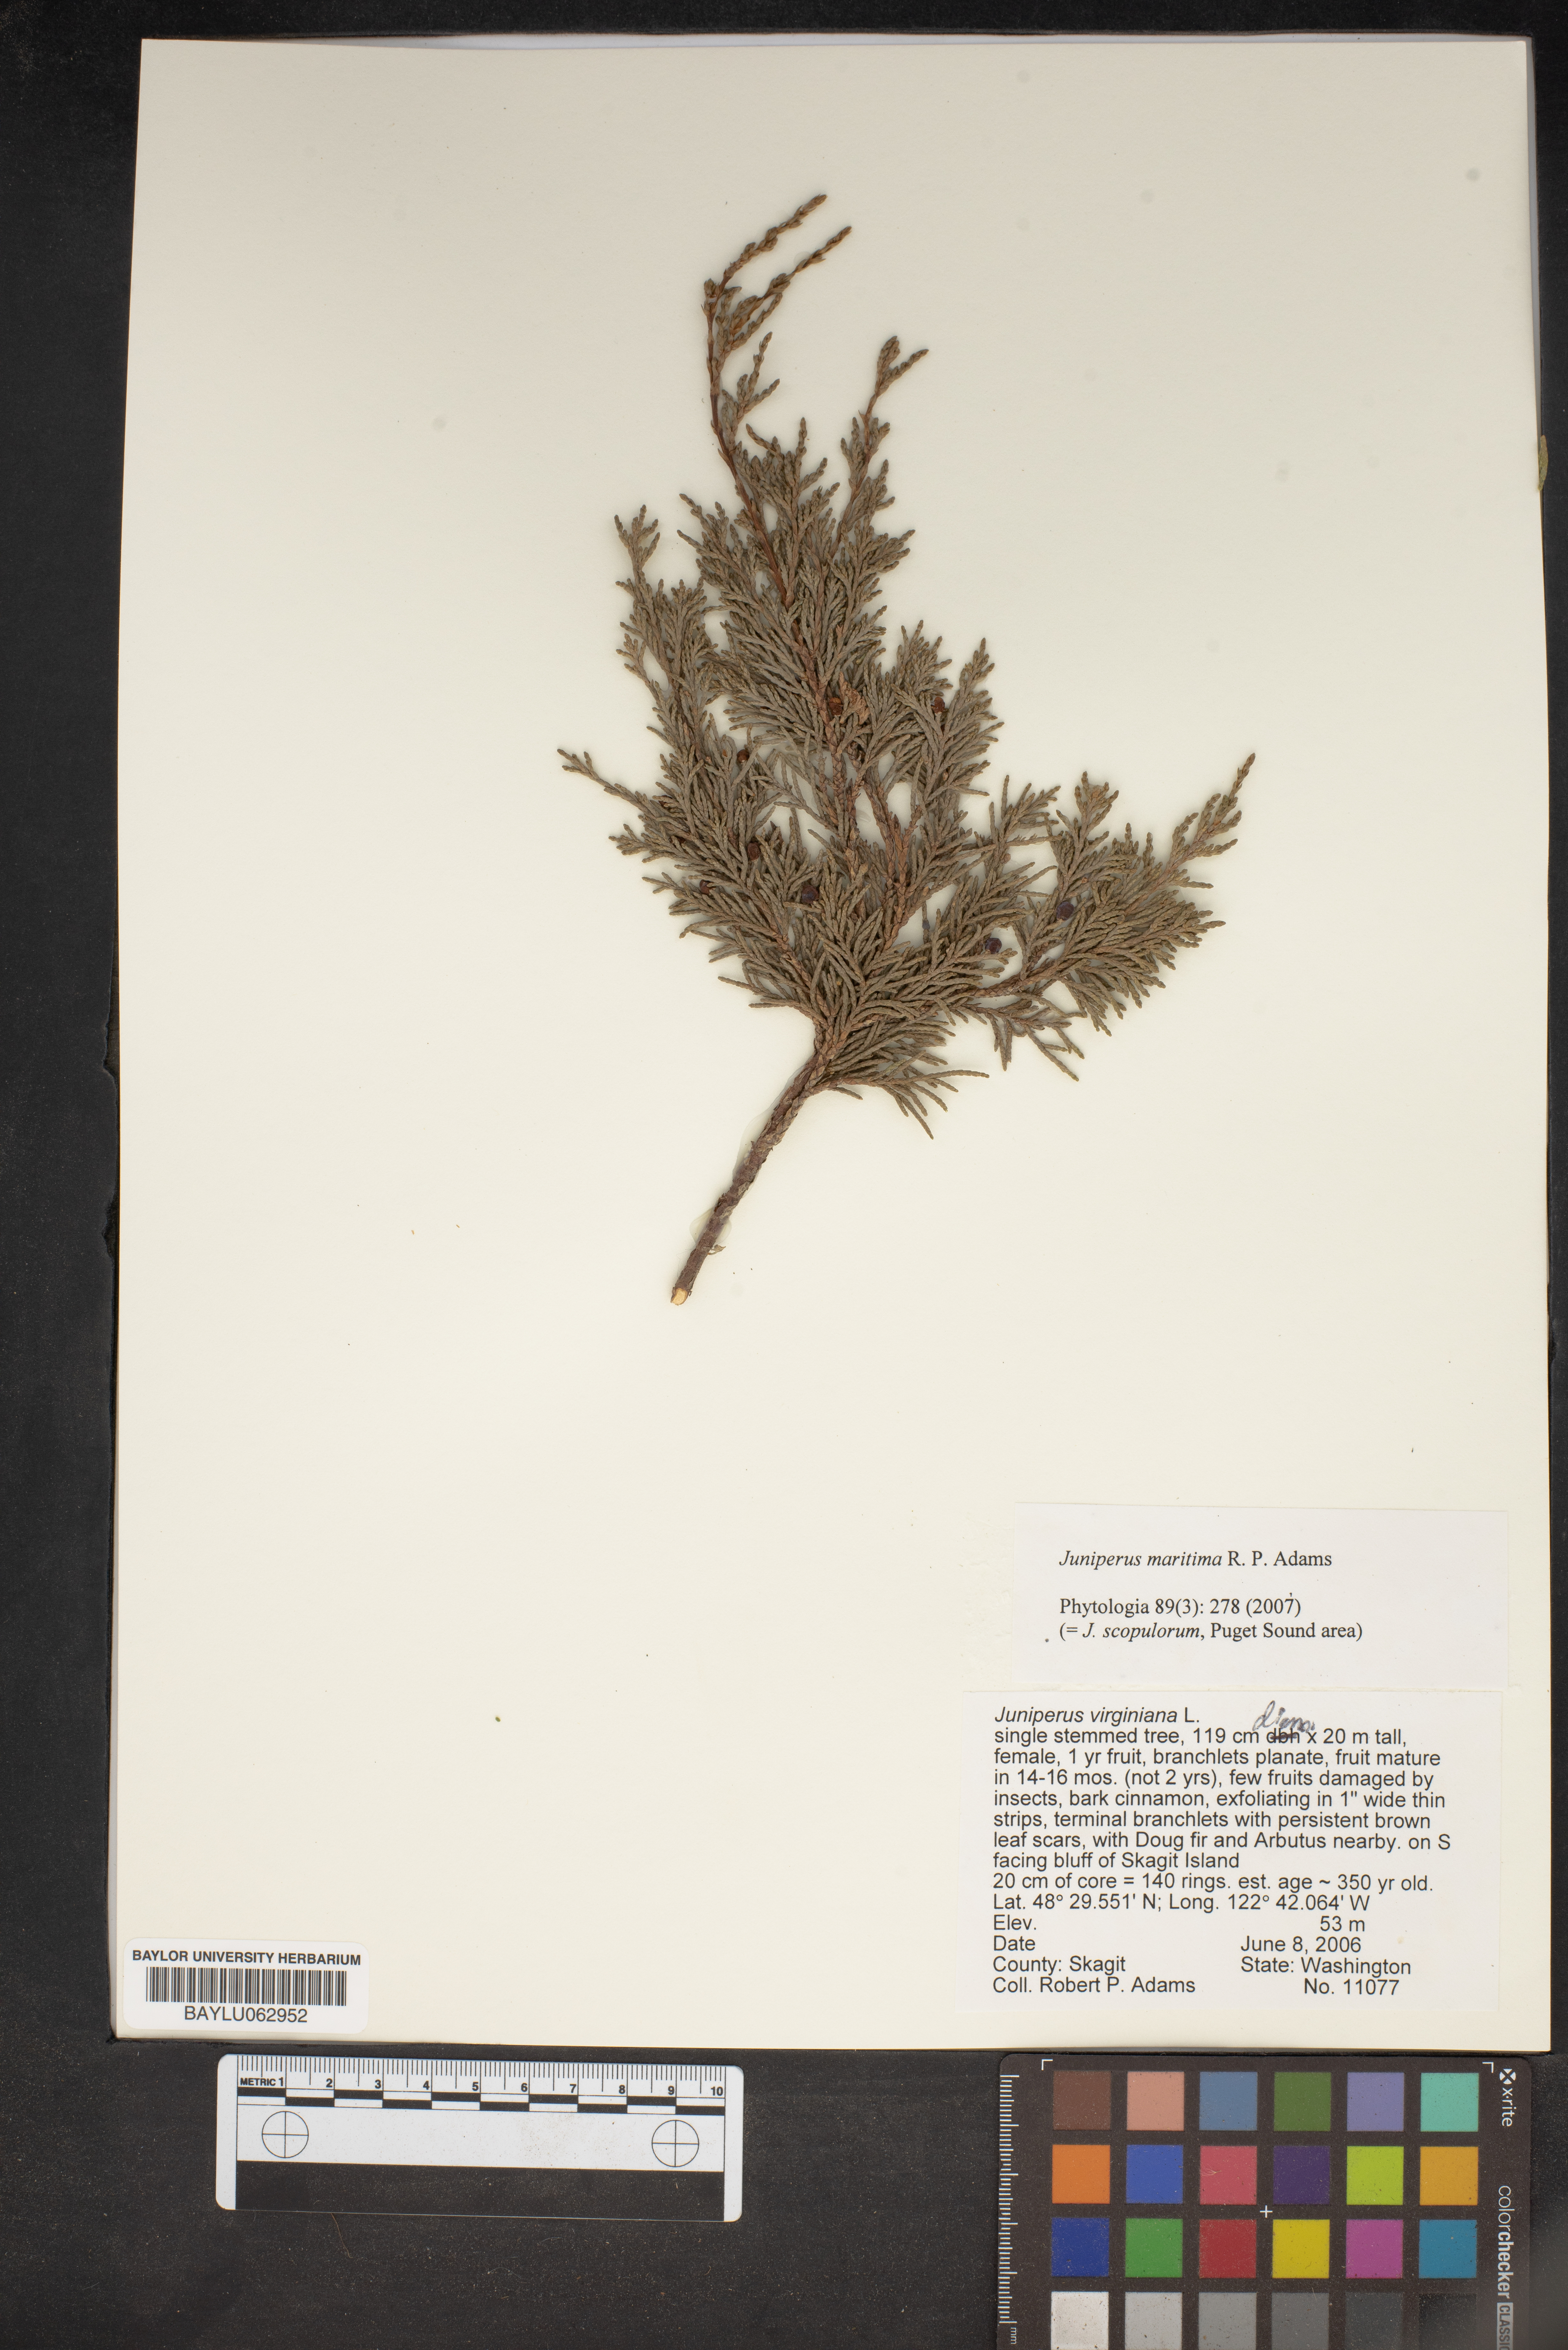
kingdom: Plantae
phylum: Tracheophyta
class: Pinopsida
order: Pinales
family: Cupressaceae
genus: Juniperus
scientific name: Juniperus scopulorum
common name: Rocky mountain juniper
